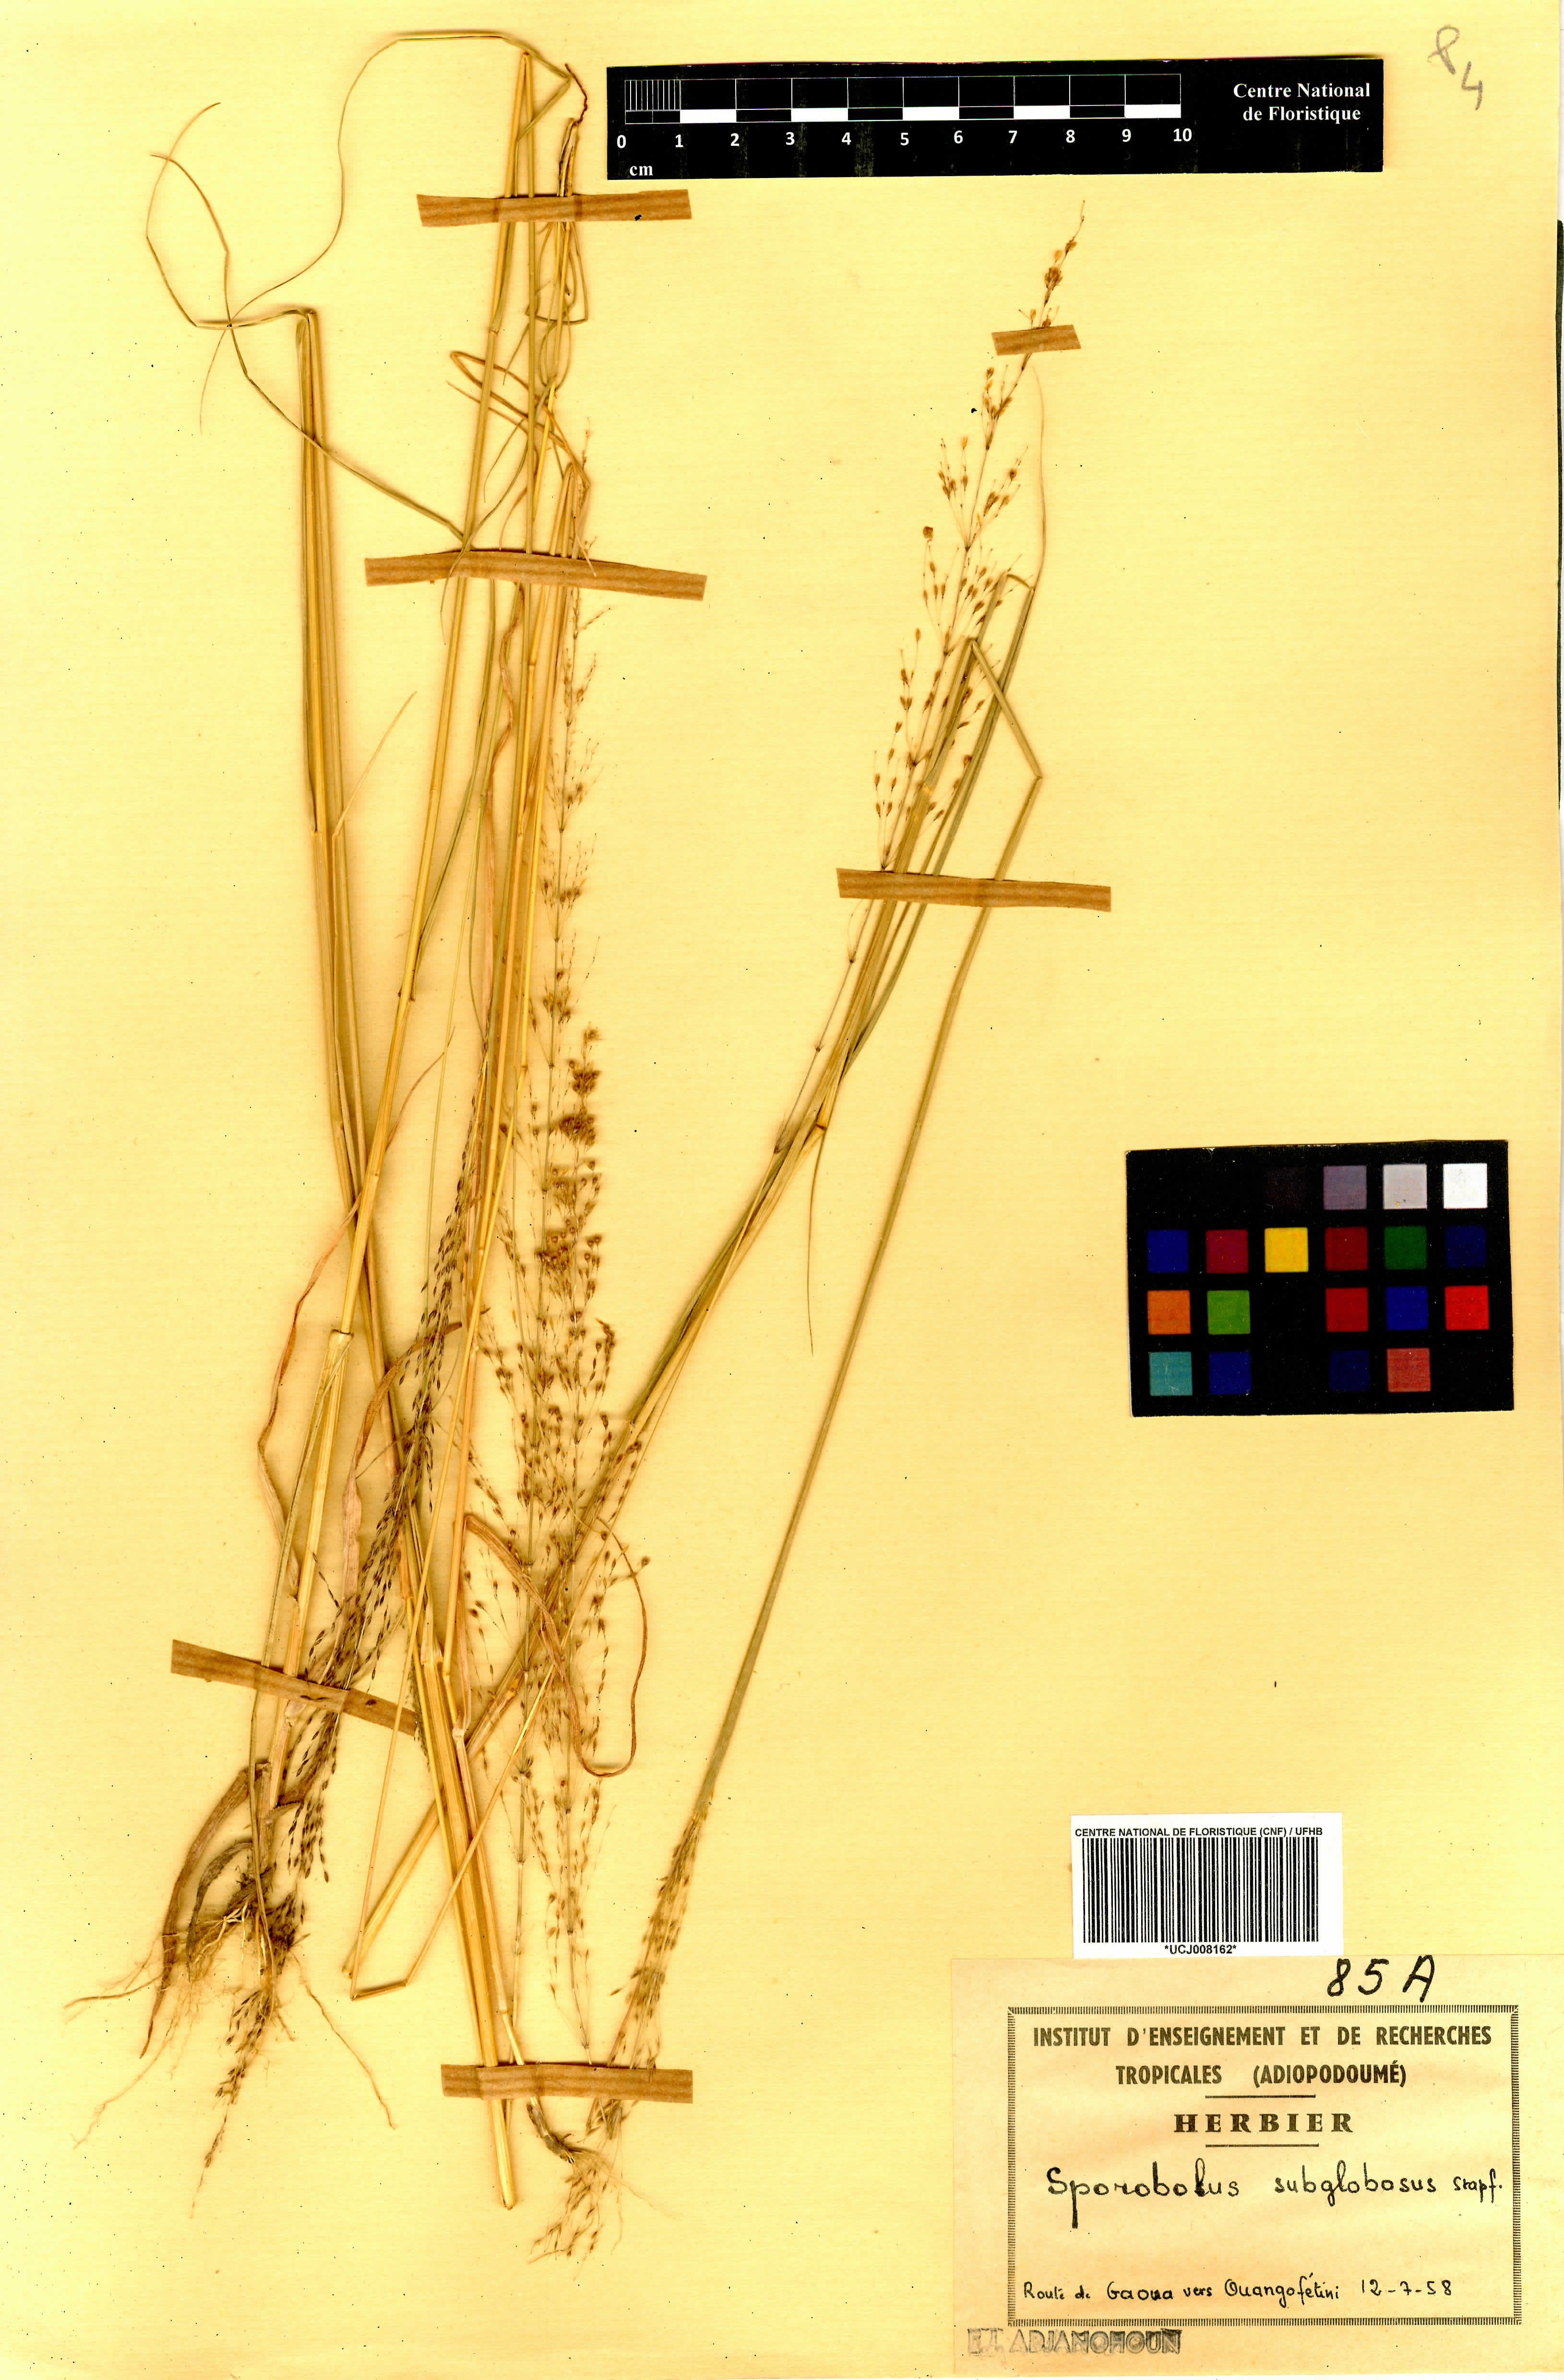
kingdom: Plantae
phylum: Tracheophyta
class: Liliopsida
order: Poales
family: Poaceae
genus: Sporobolus
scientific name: Sporobolus subglobosus
